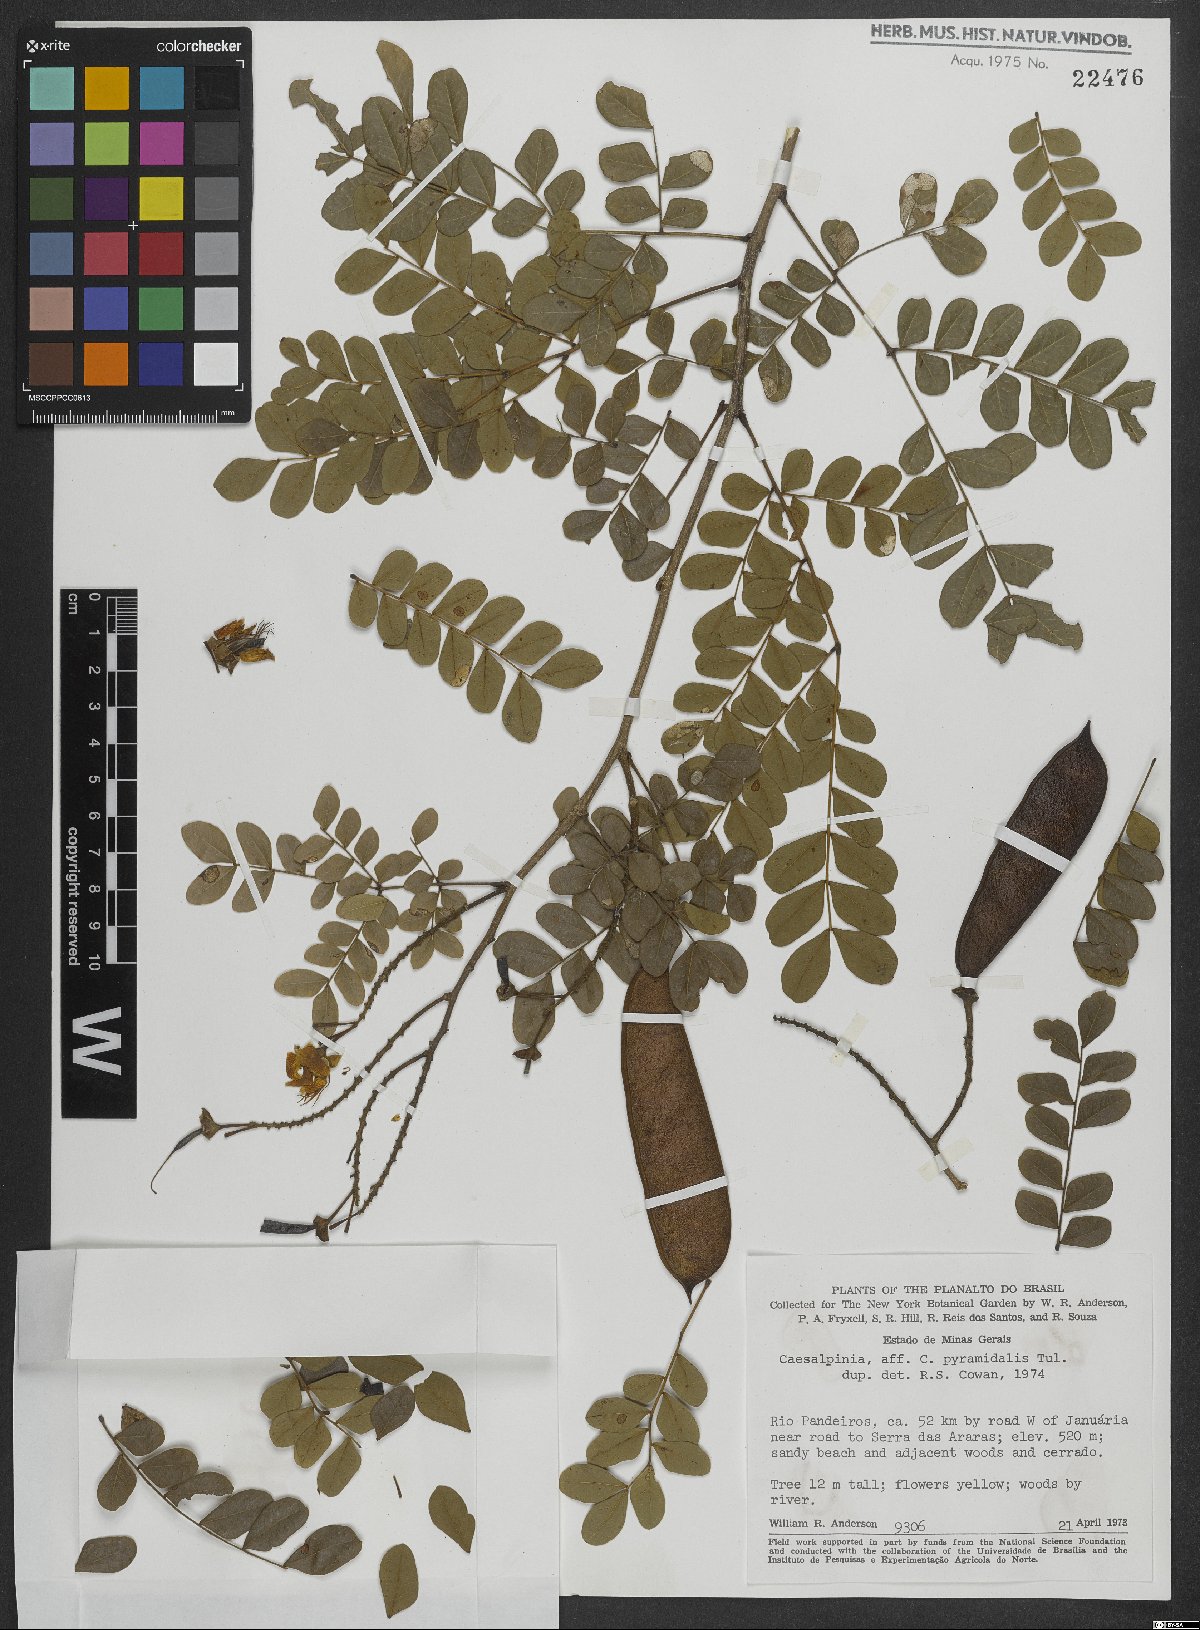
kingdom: Plantae
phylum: Tracheophyta
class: Magnoliopsida
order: Fabales
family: Fabaceae
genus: Cenostigma
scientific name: Cenostigma pyramidale
